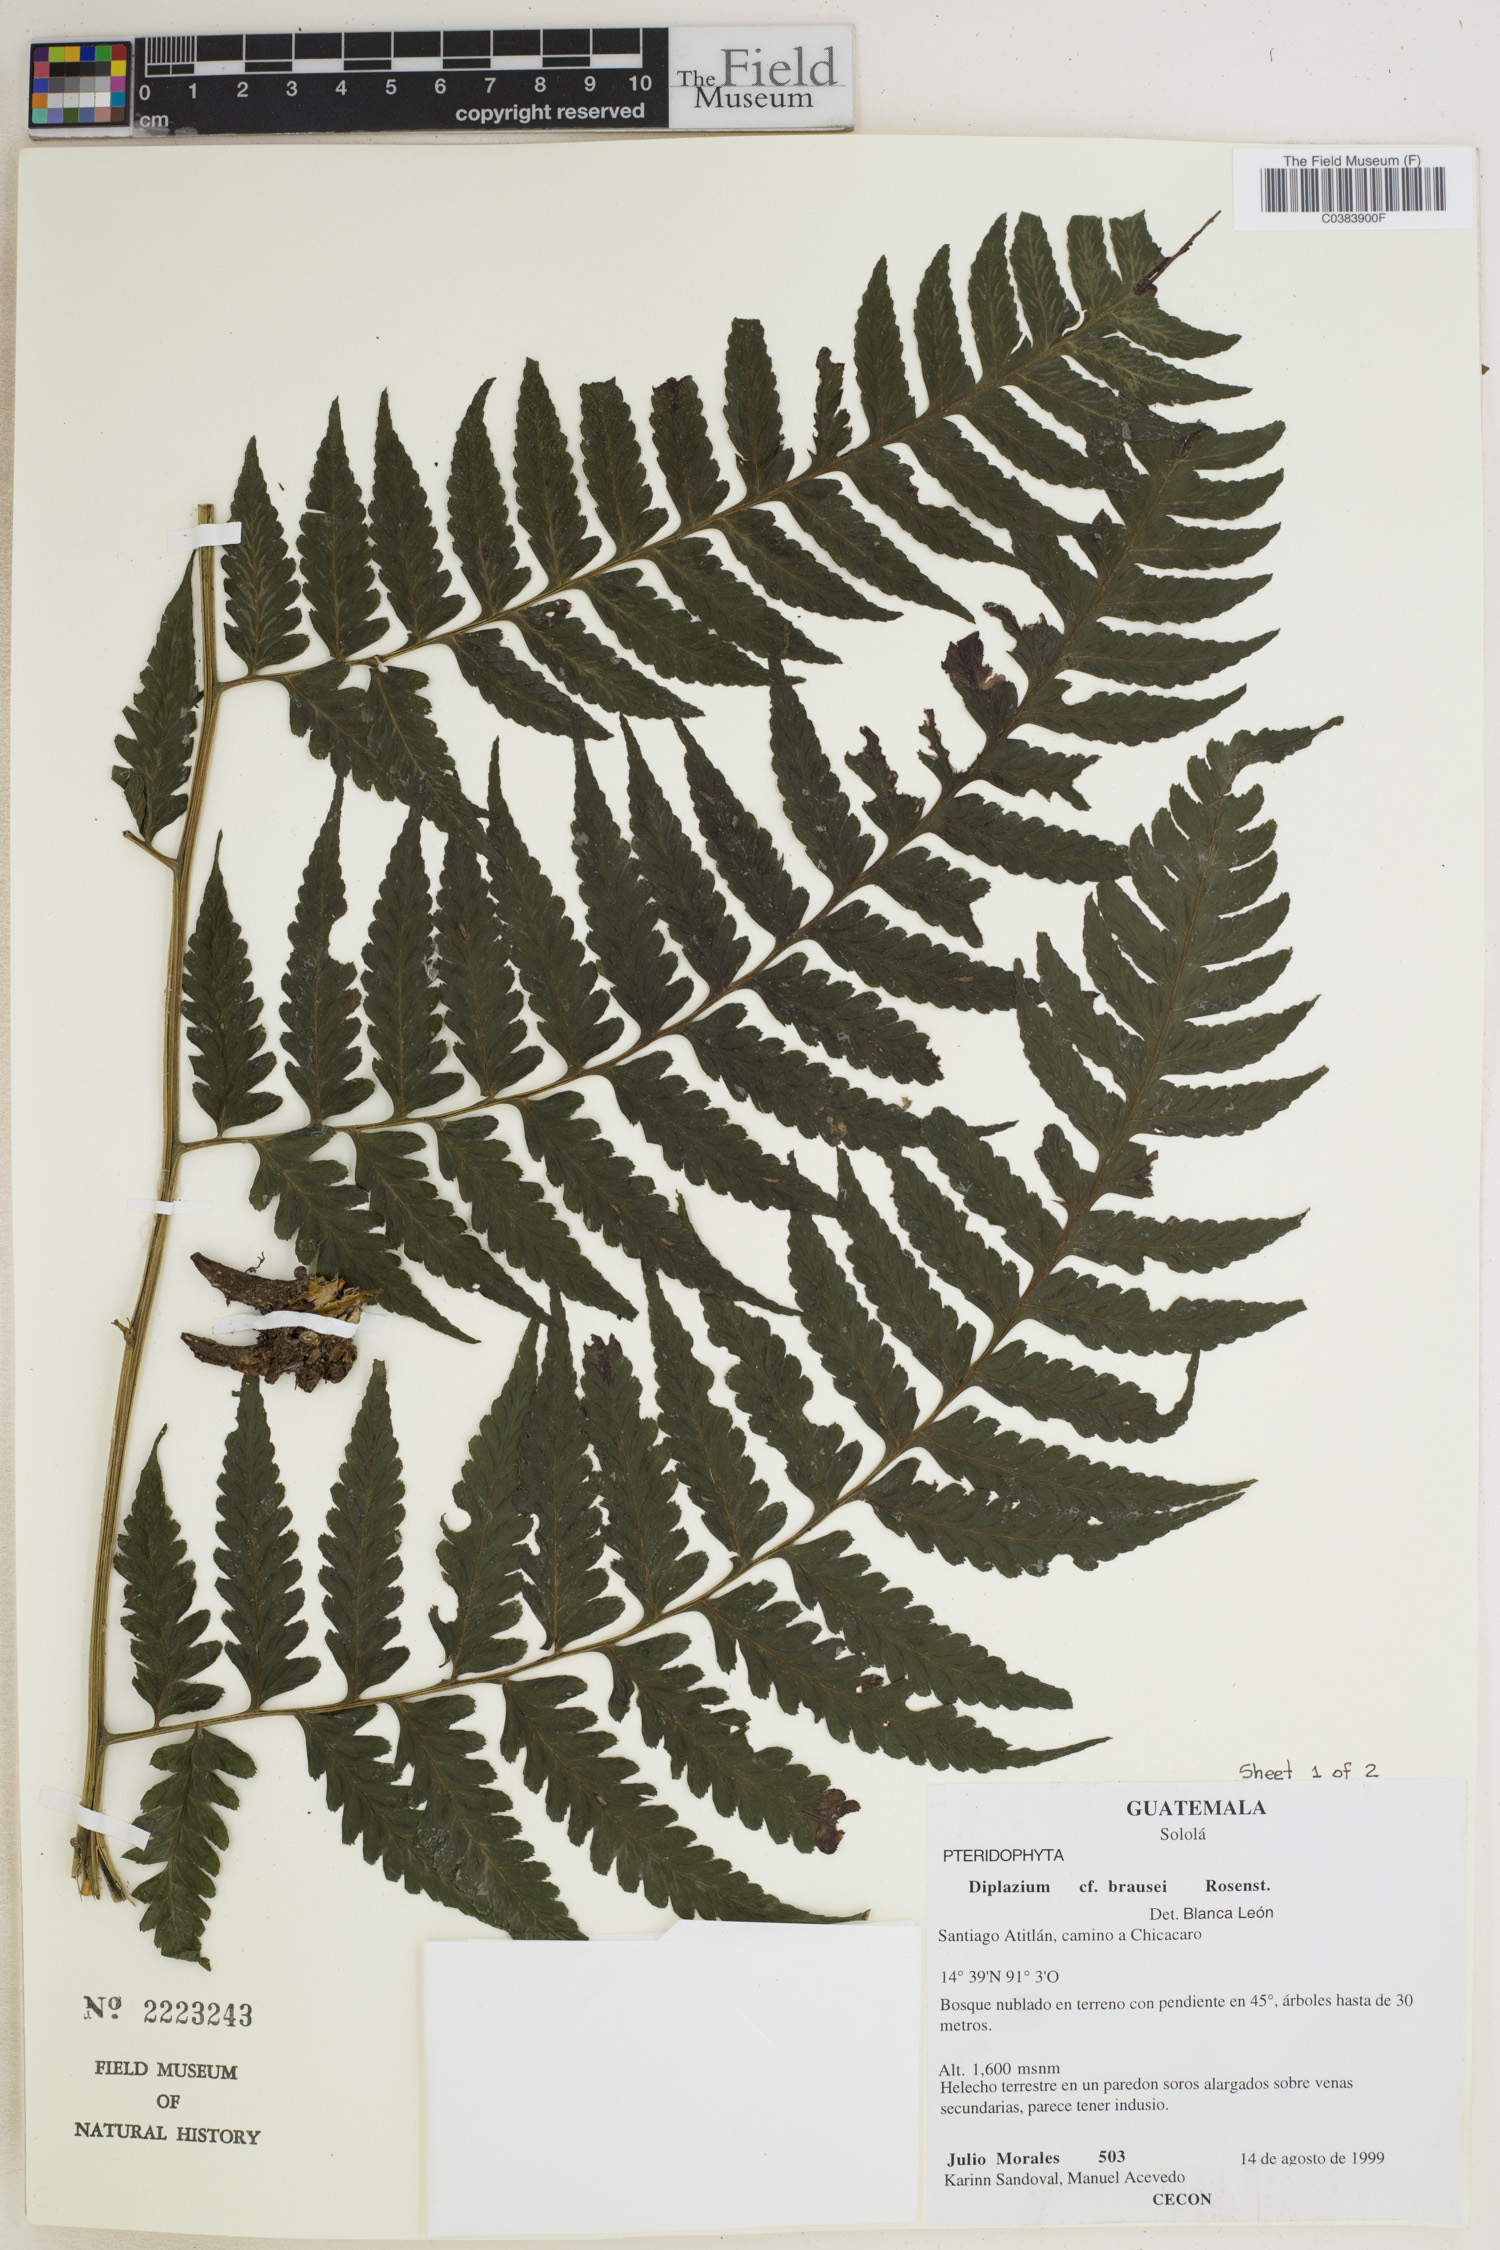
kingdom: Plantae
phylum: Tracheophyta
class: Polypodiopsida
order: Polypodiales
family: Athyriaceae
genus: Diplazium
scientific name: Diplazium brausei
